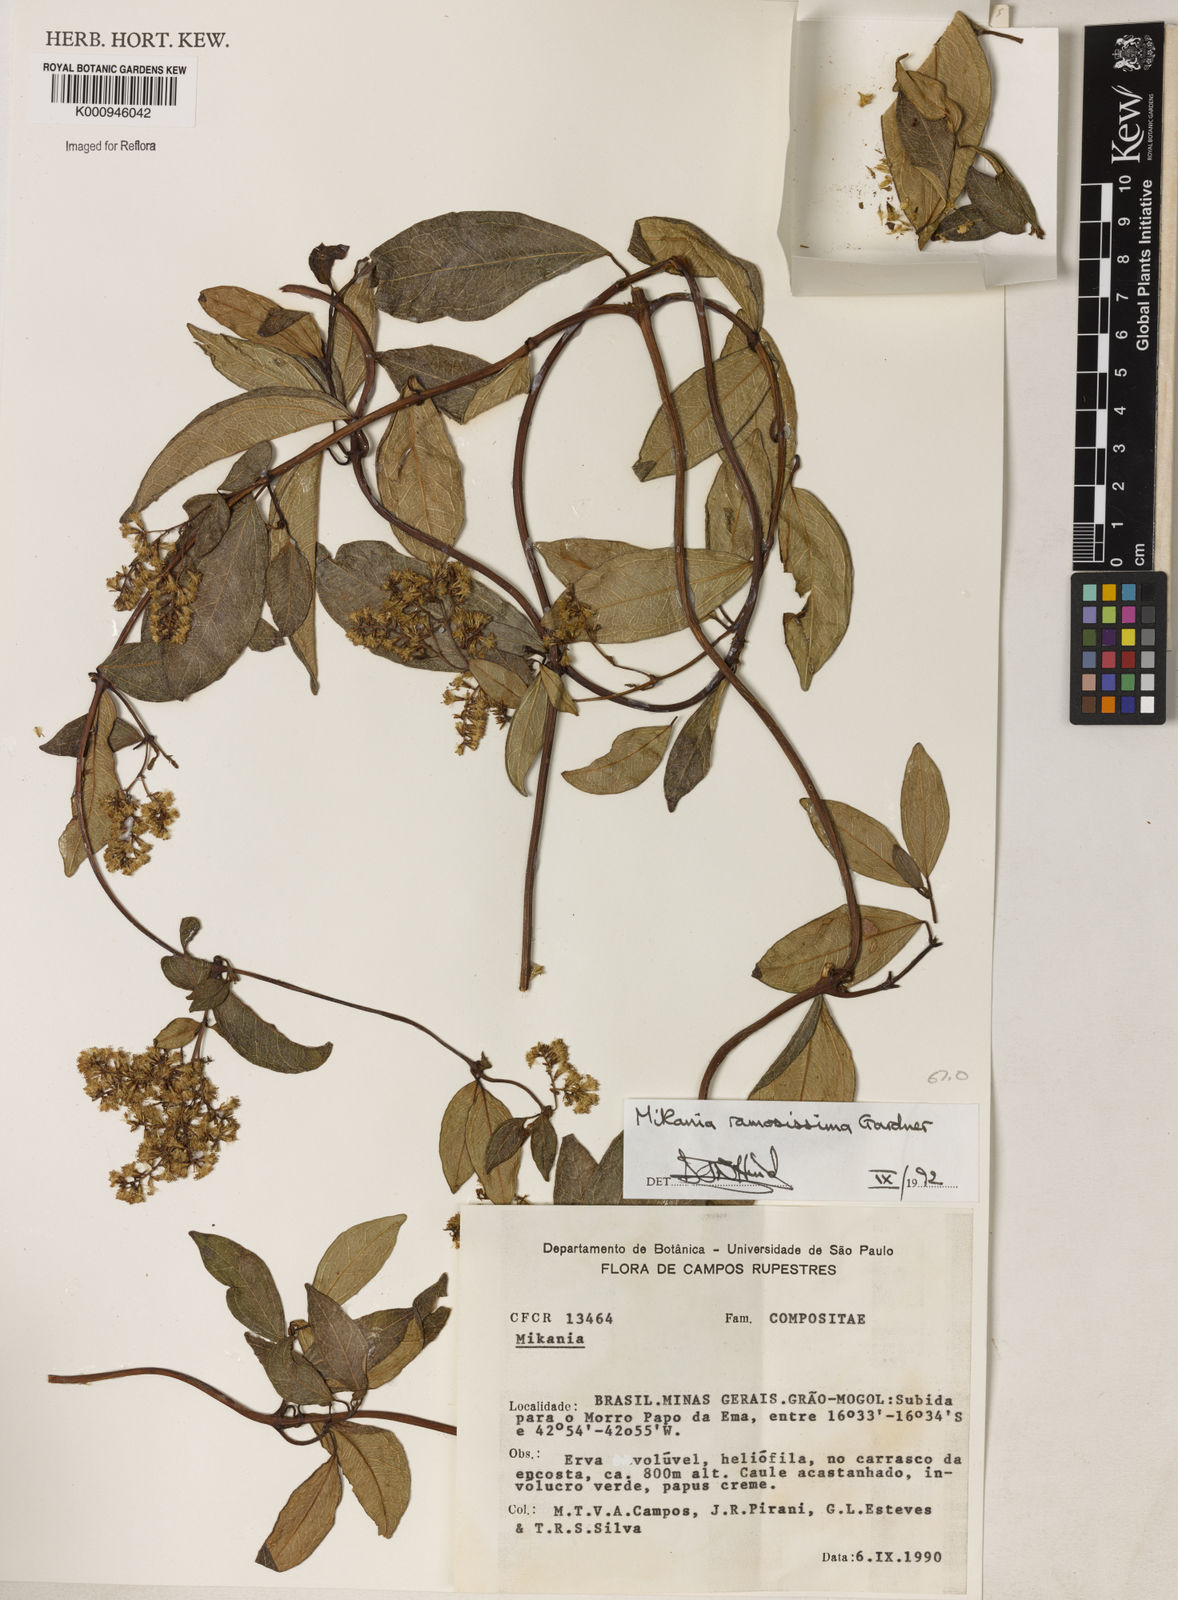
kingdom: Plantae
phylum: Tracheophyta
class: Magnoliopsida
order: Asterales
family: Asteraceae
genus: Mikania
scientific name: Mikania ramosissima
